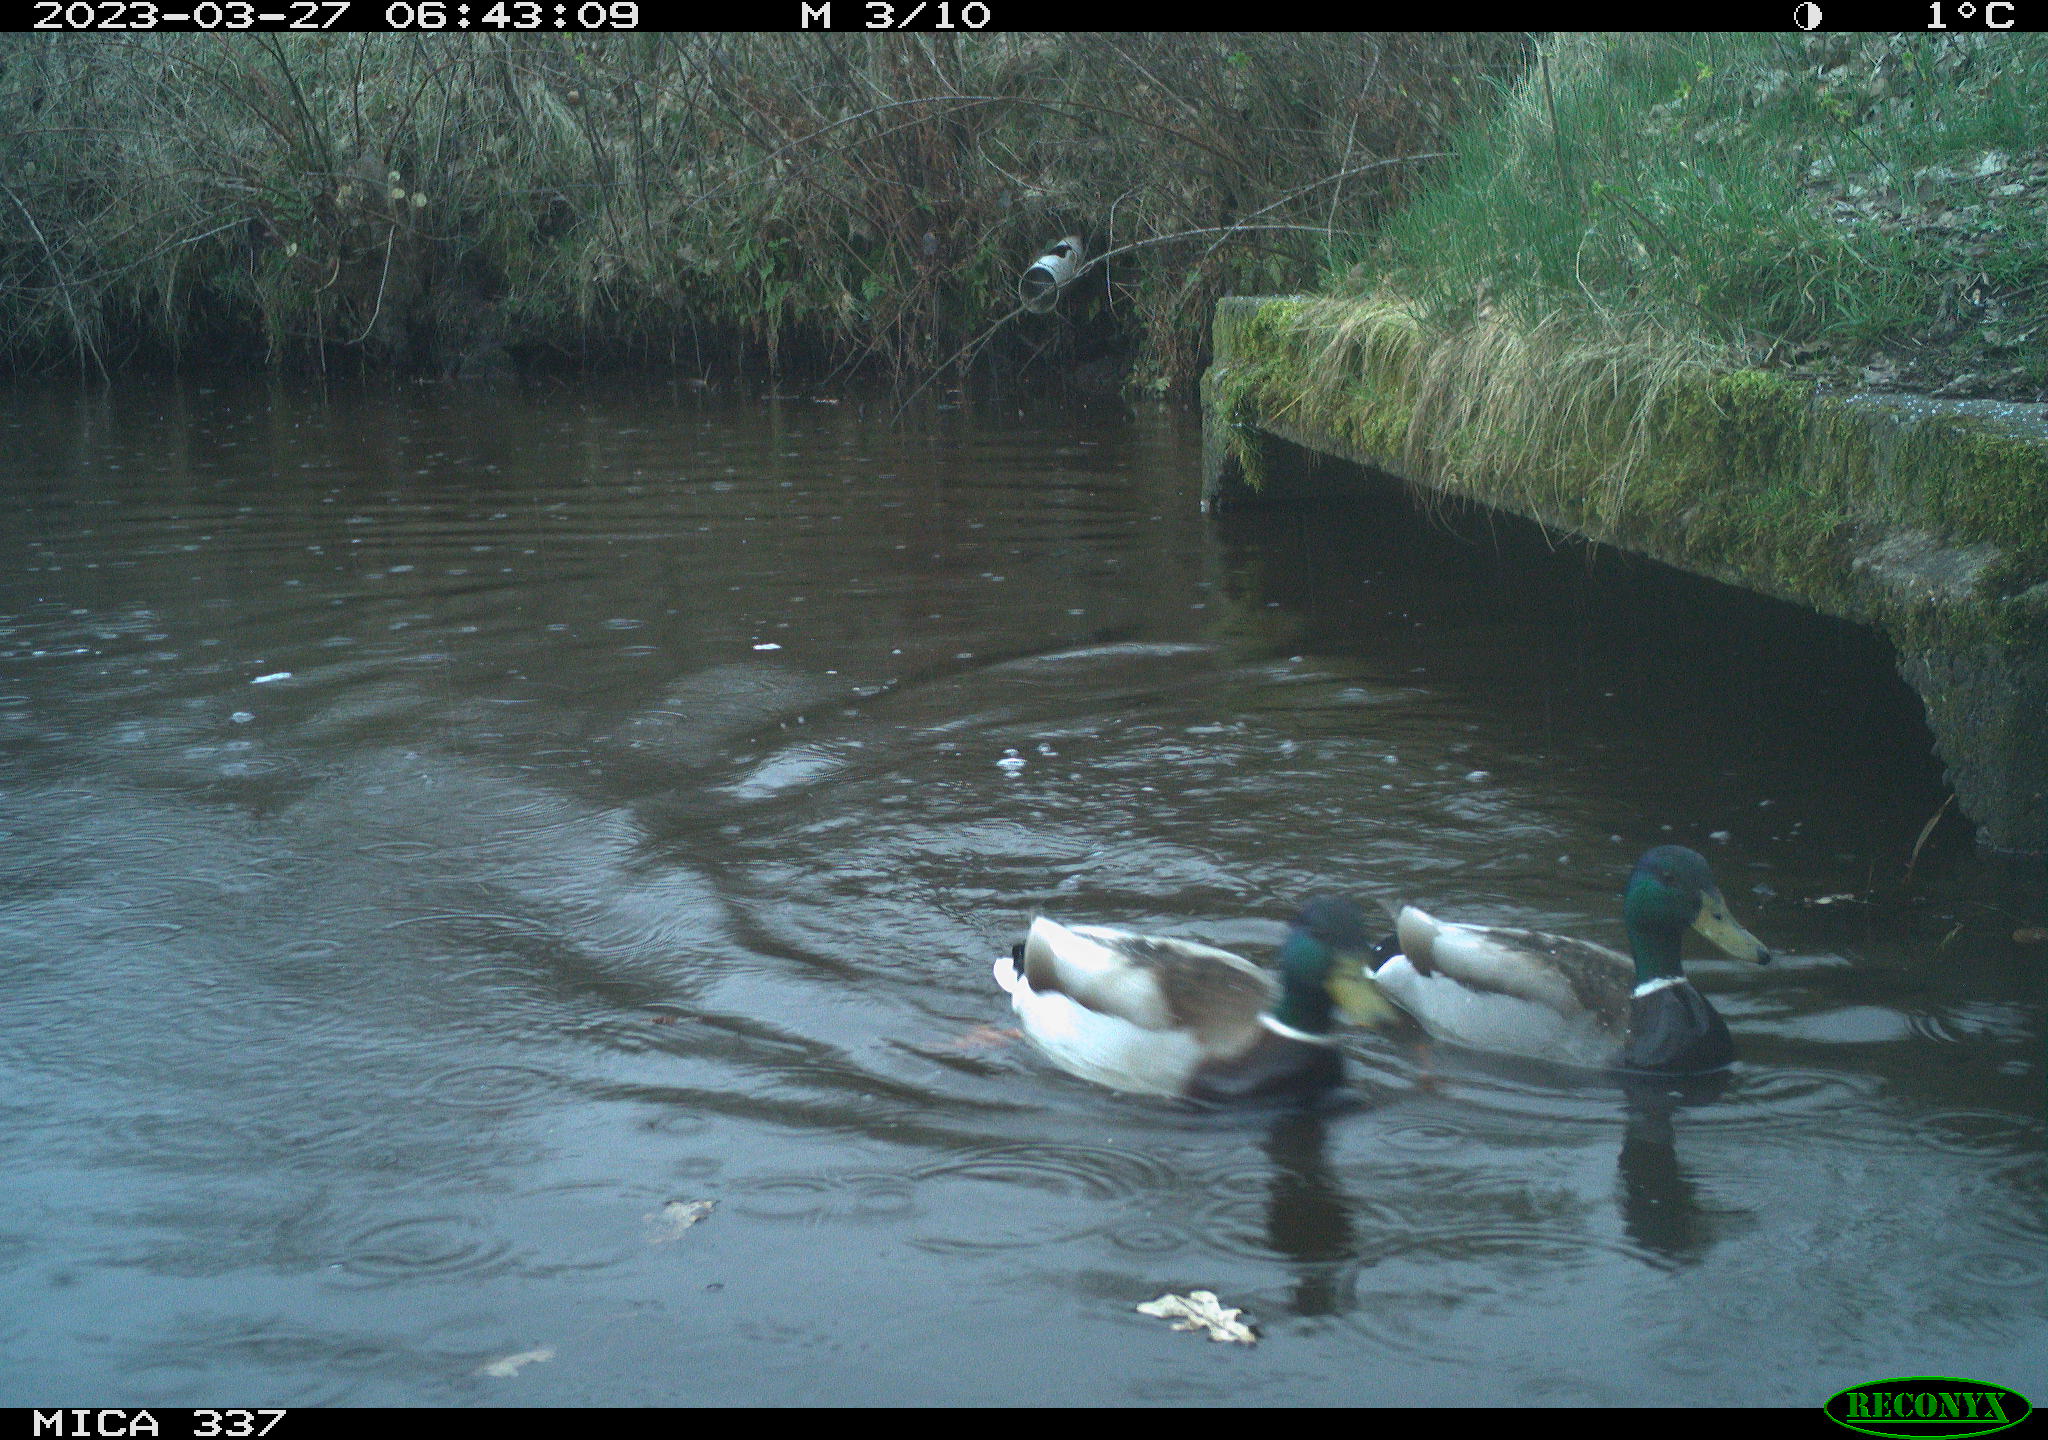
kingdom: Animalia
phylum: Chordata
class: Aves
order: Anseriformes
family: Anatidae
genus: Anas
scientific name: Anas platyrhynchos
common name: Mallard
